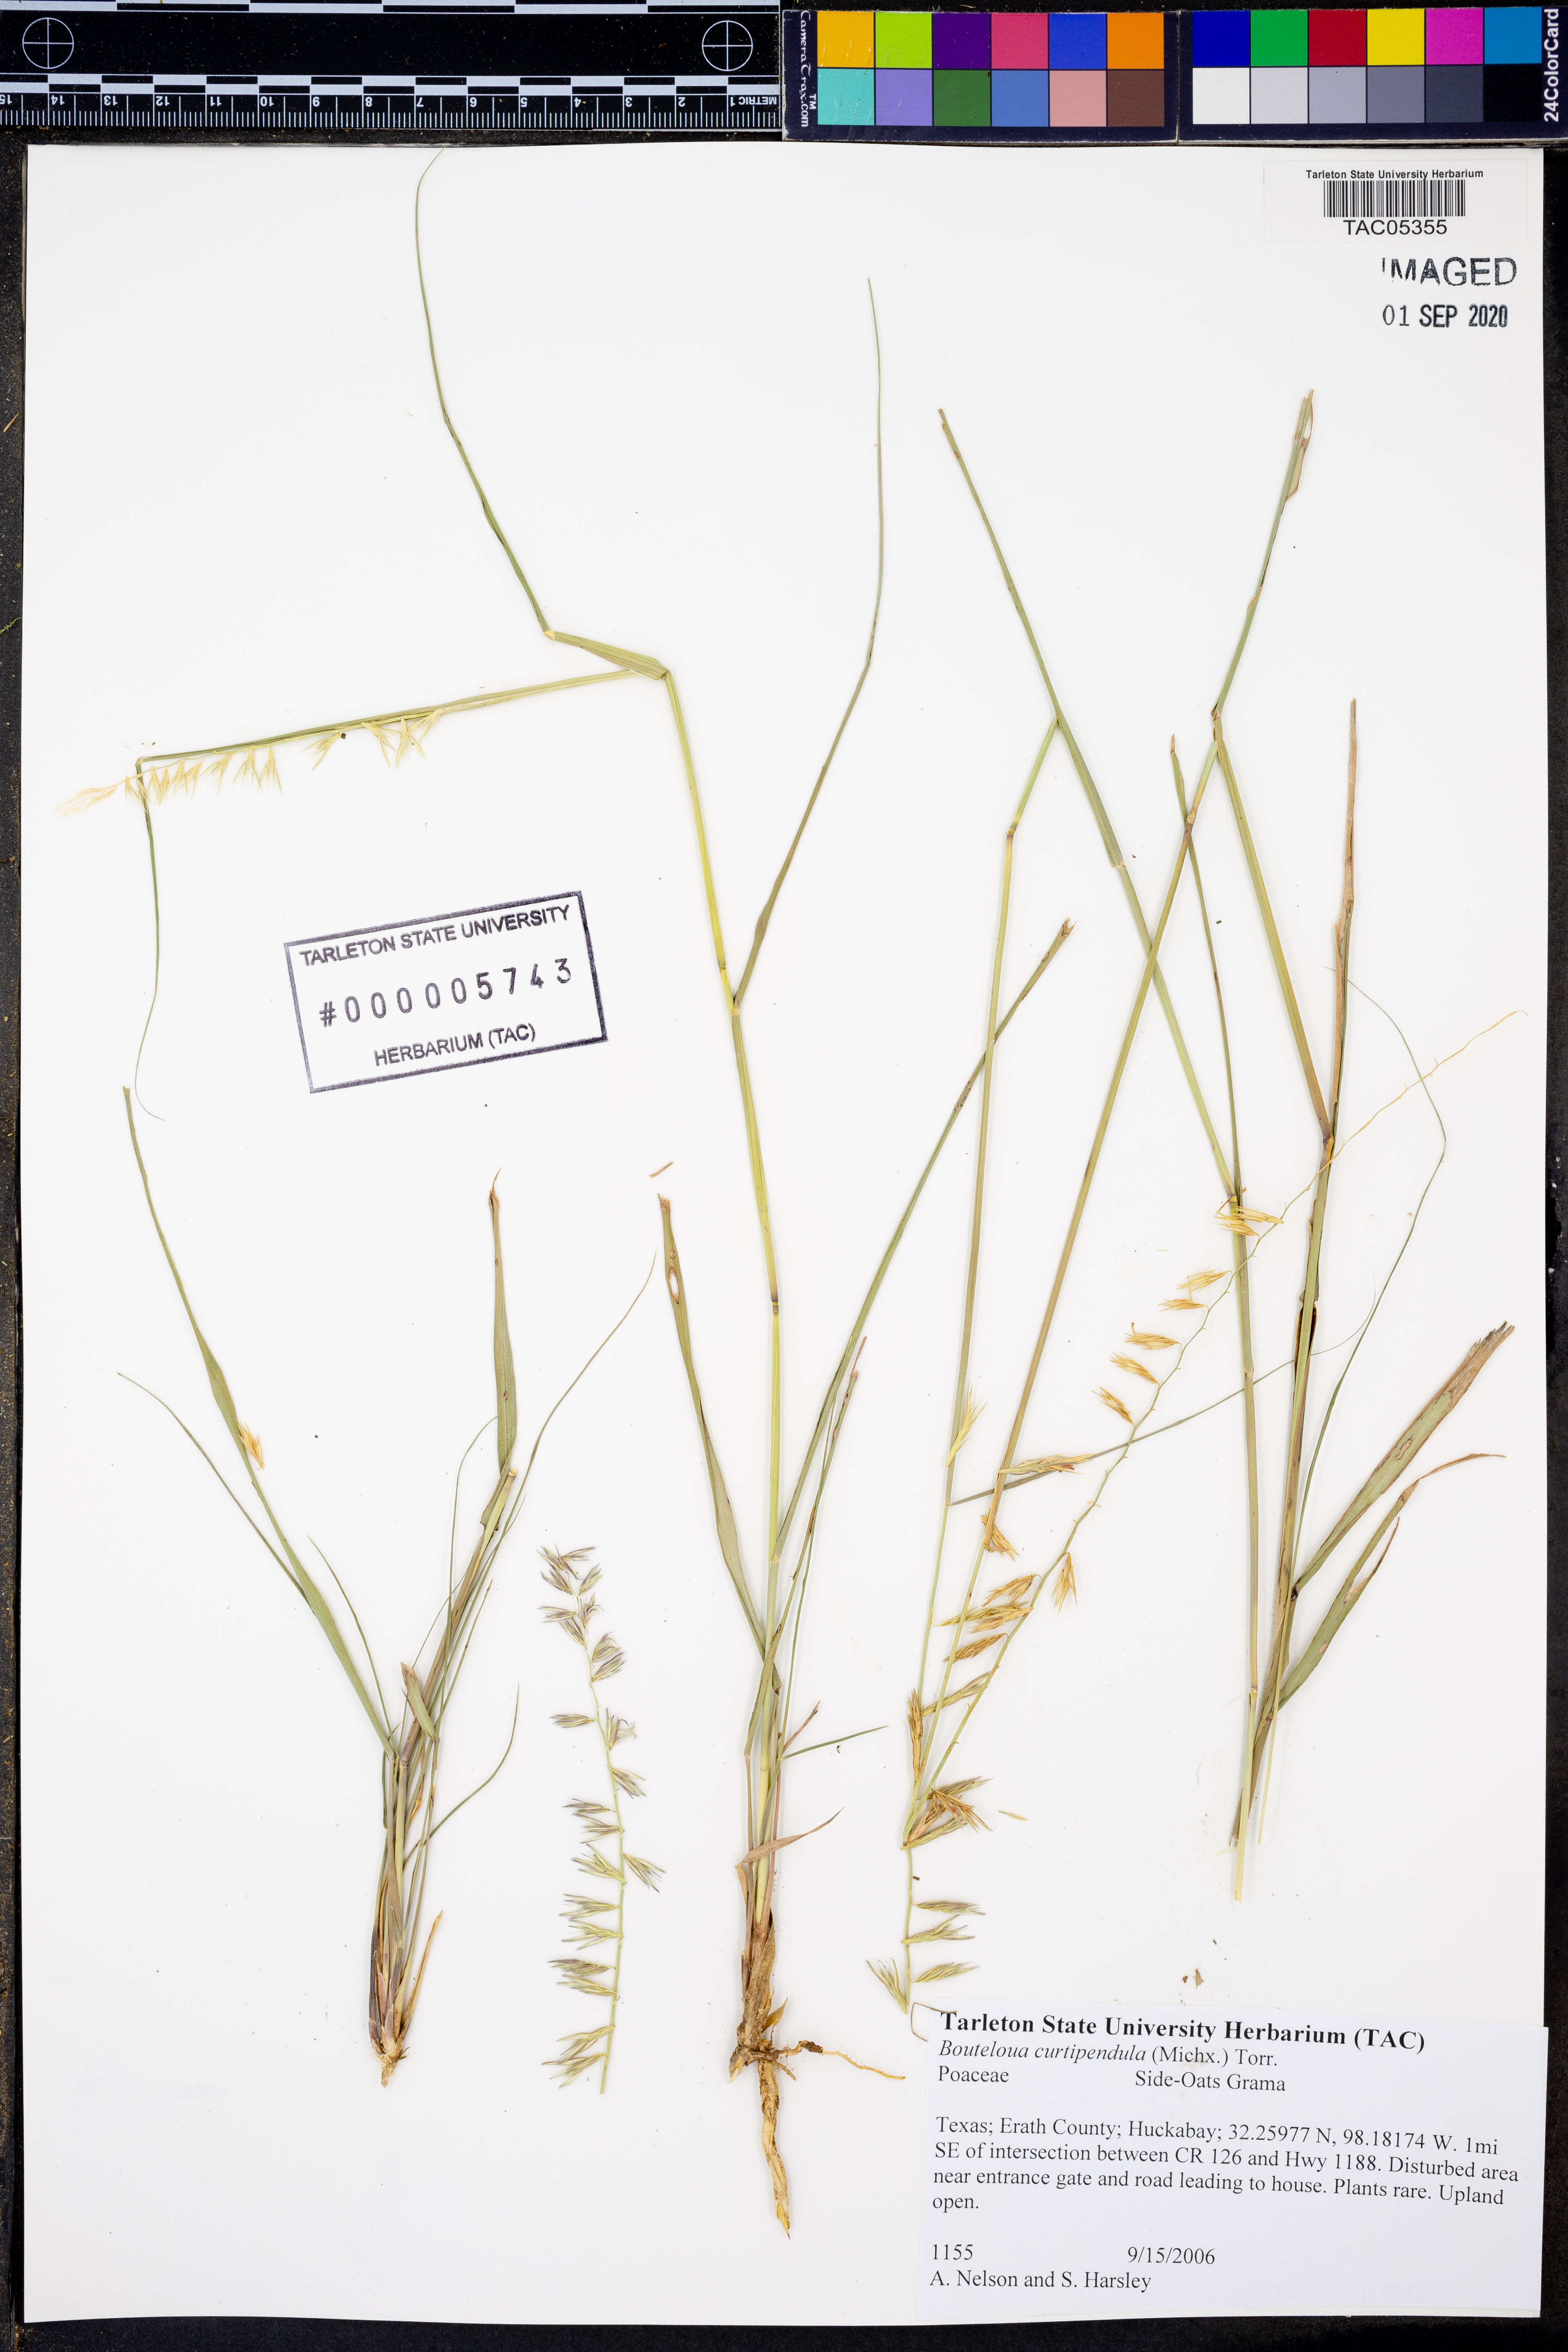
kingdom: Plantae
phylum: Tracheophyta
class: Liliopsida
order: Poales
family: Poaceae
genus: Bouteloua
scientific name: Bouteloua curtipendula
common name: Side-oats grama
